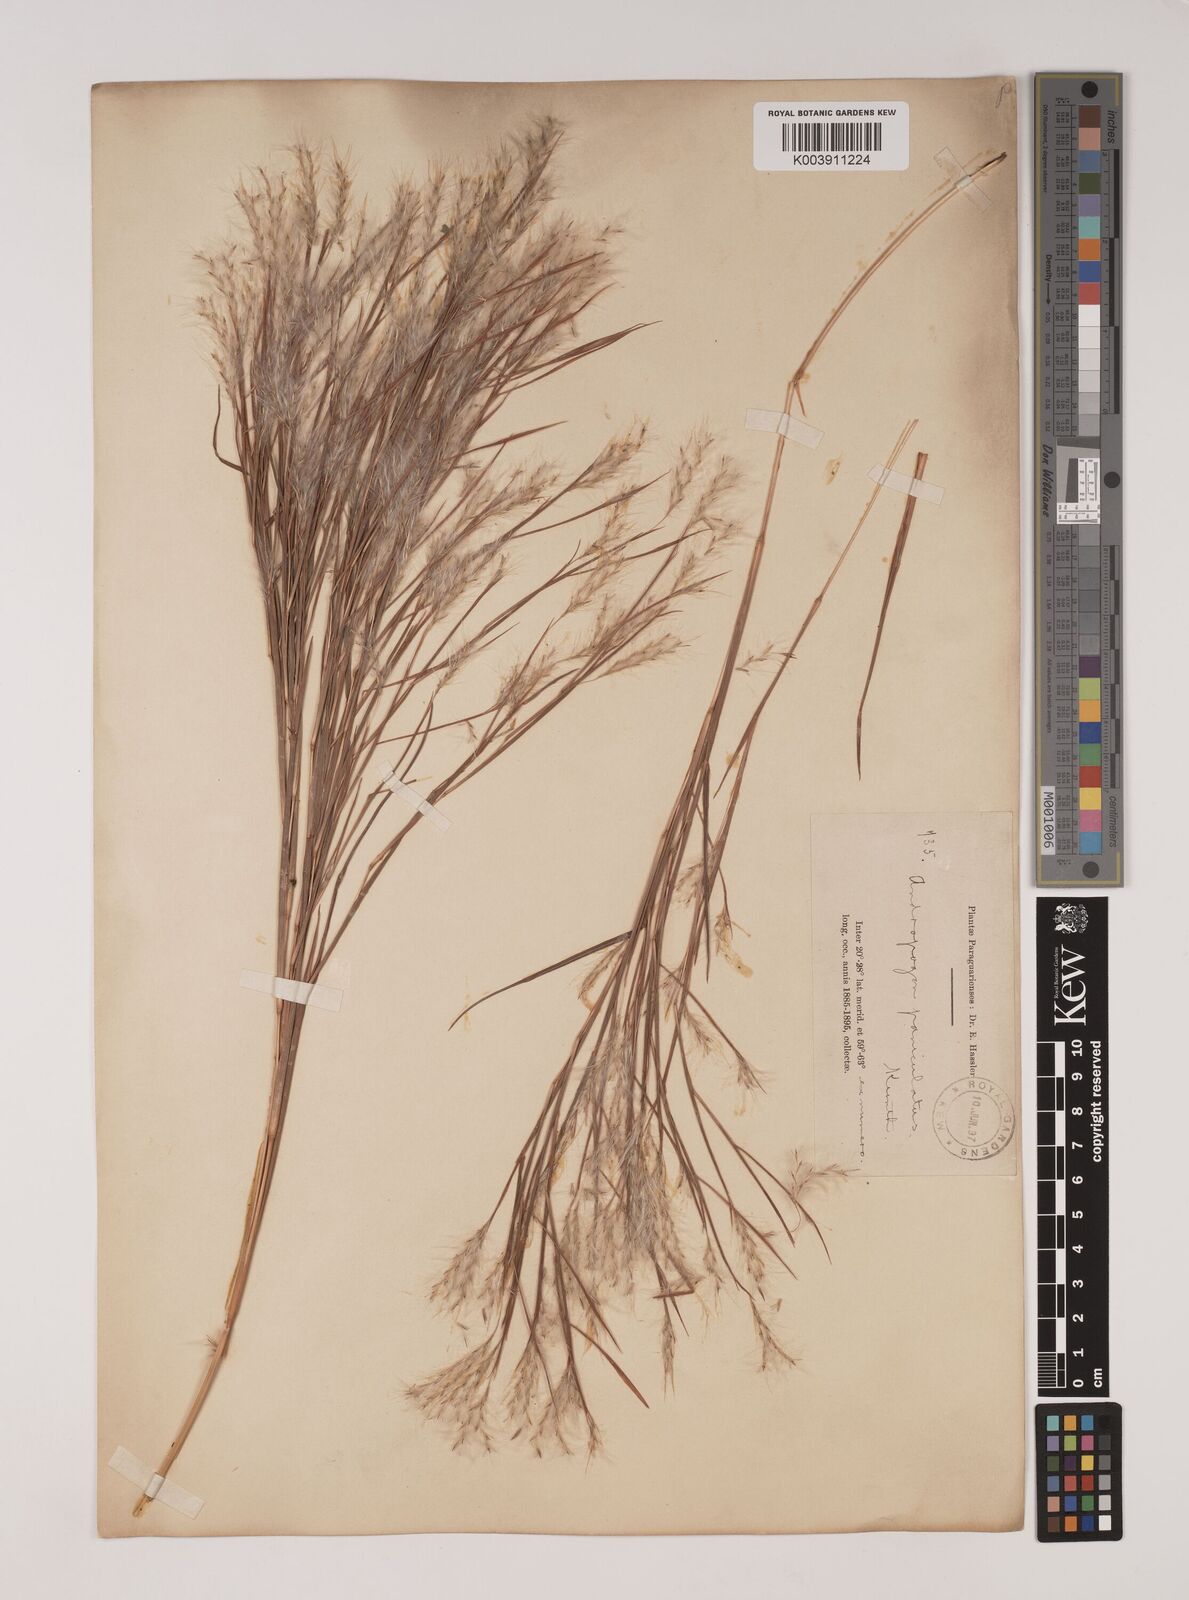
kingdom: Plantae
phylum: Tracheophyta
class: Liliopsida
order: Poales
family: Poaceae
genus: Andropogon
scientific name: Andropogon bicornis
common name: West indian foxtail grass
